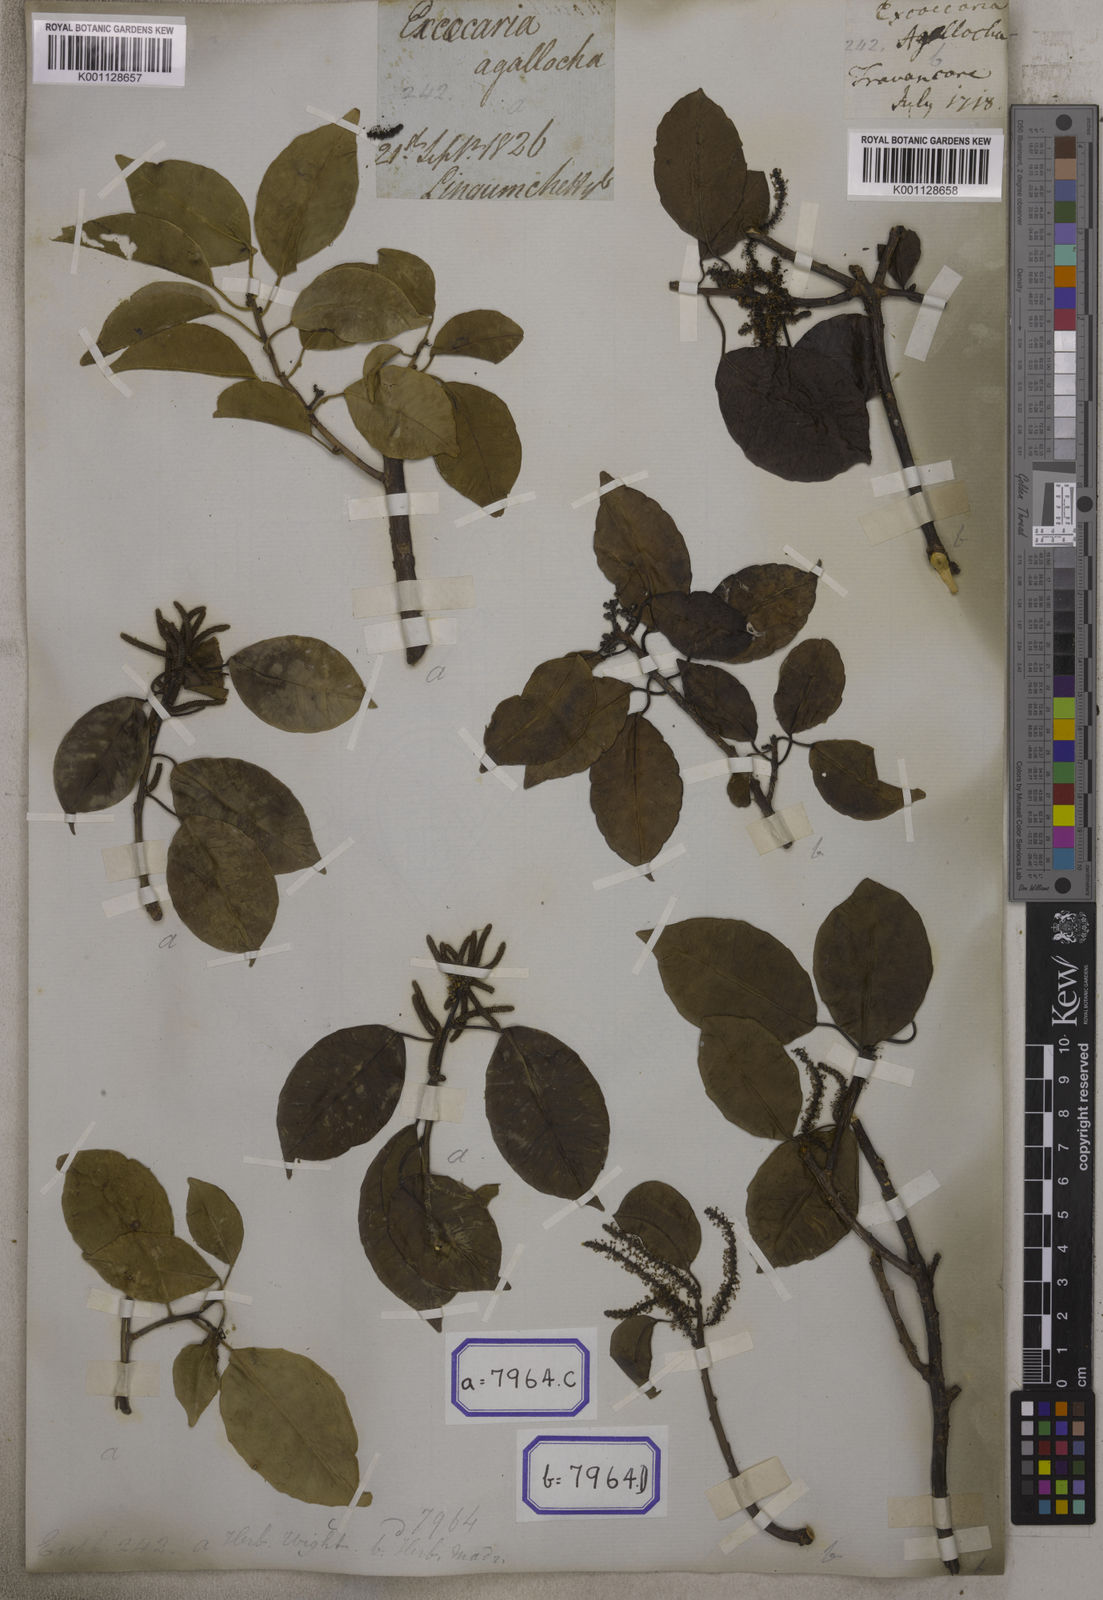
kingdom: Plantae
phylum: Tracheophyta
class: Magnoliopsida
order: Malpighiales
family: Euphorbiaceae
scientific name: Euphorbiaceae
